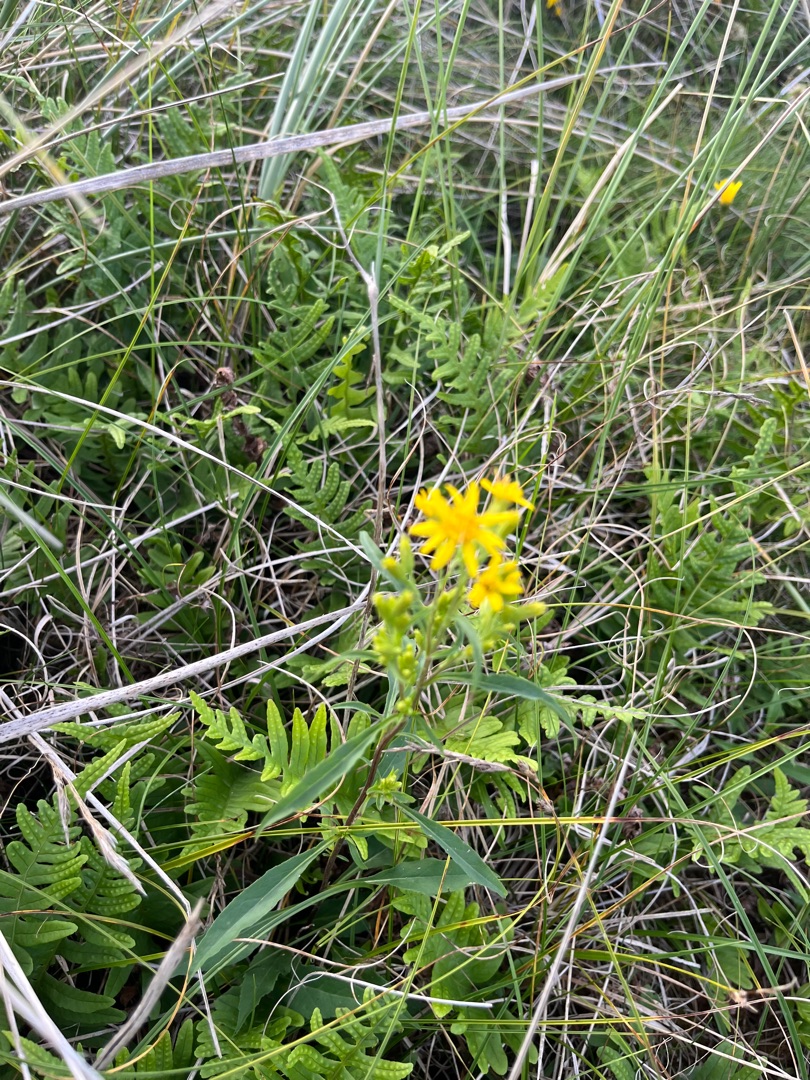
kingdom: Plantae
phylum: Tracheophyta
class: Magnoliopsida
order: Asterales
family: Asteraceae
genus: Solidago
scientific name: Solidago virgaurea
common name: Almindelig gyldenris
